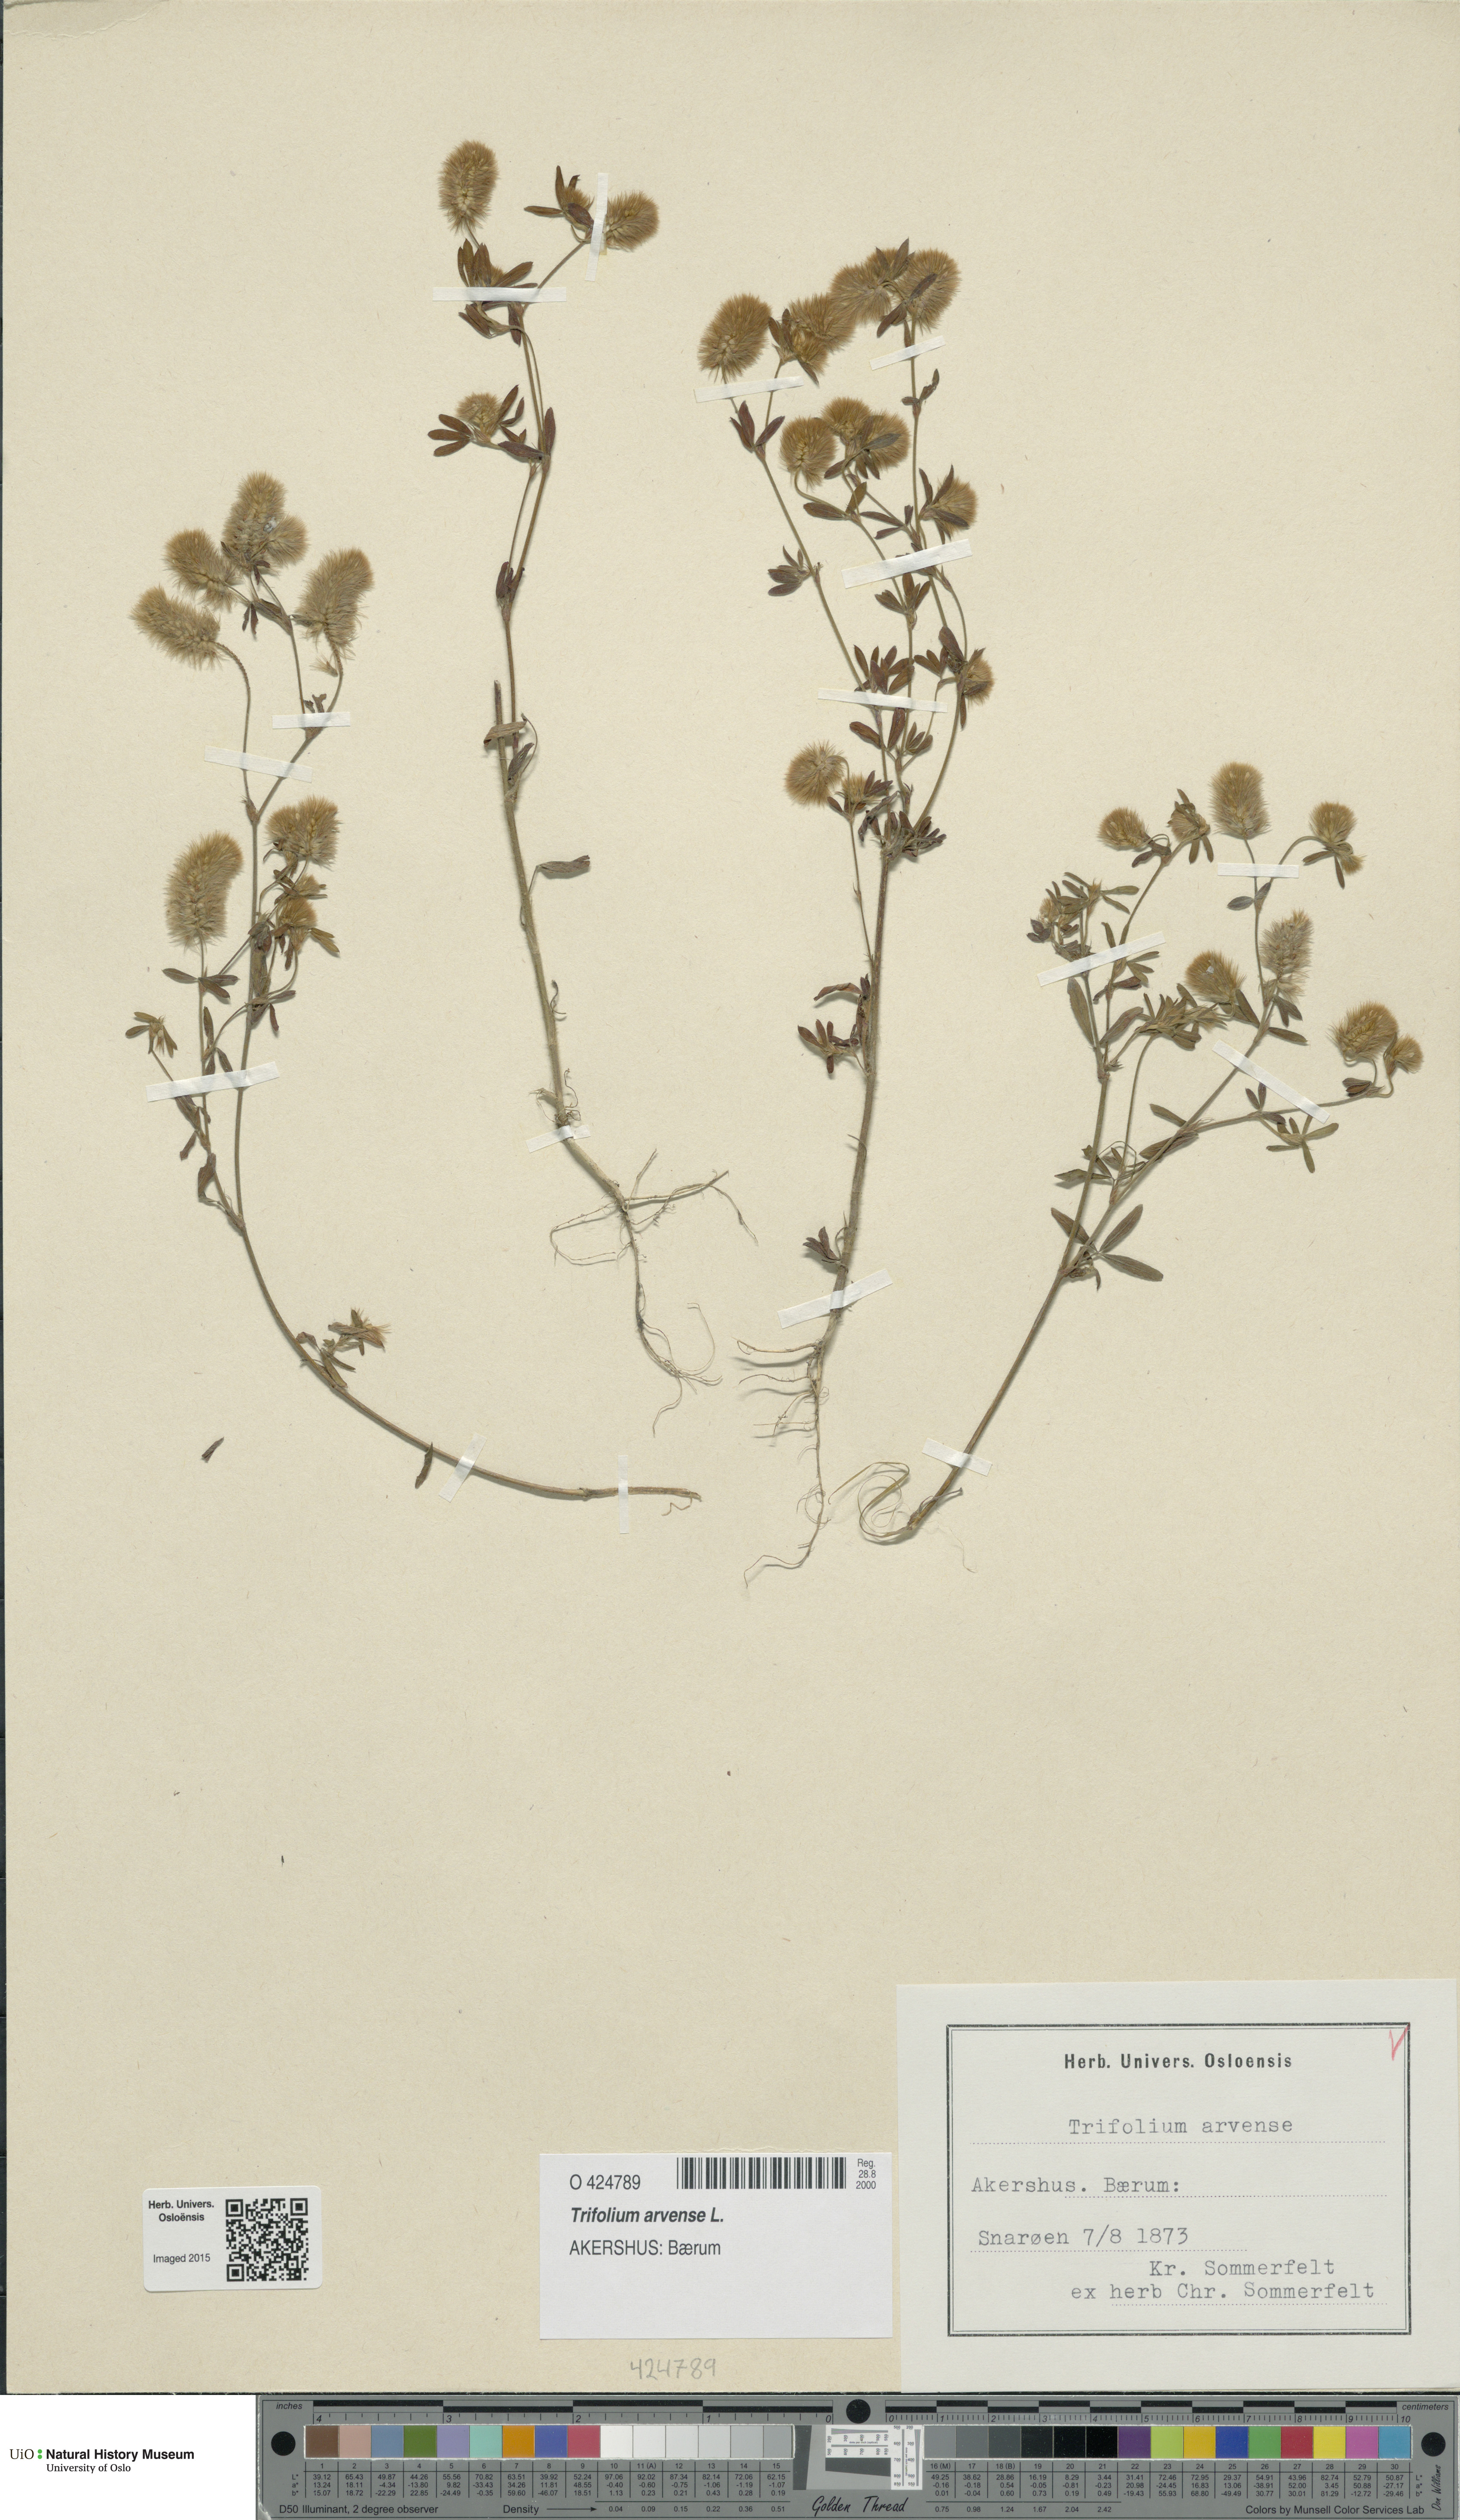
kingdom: Plantae
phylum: Tracheophyta
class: Magnoliopsida
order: Fabales
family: Fabaceae
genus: Trifolium
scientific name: Trifolium arvense
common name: Hare's-foot clover
